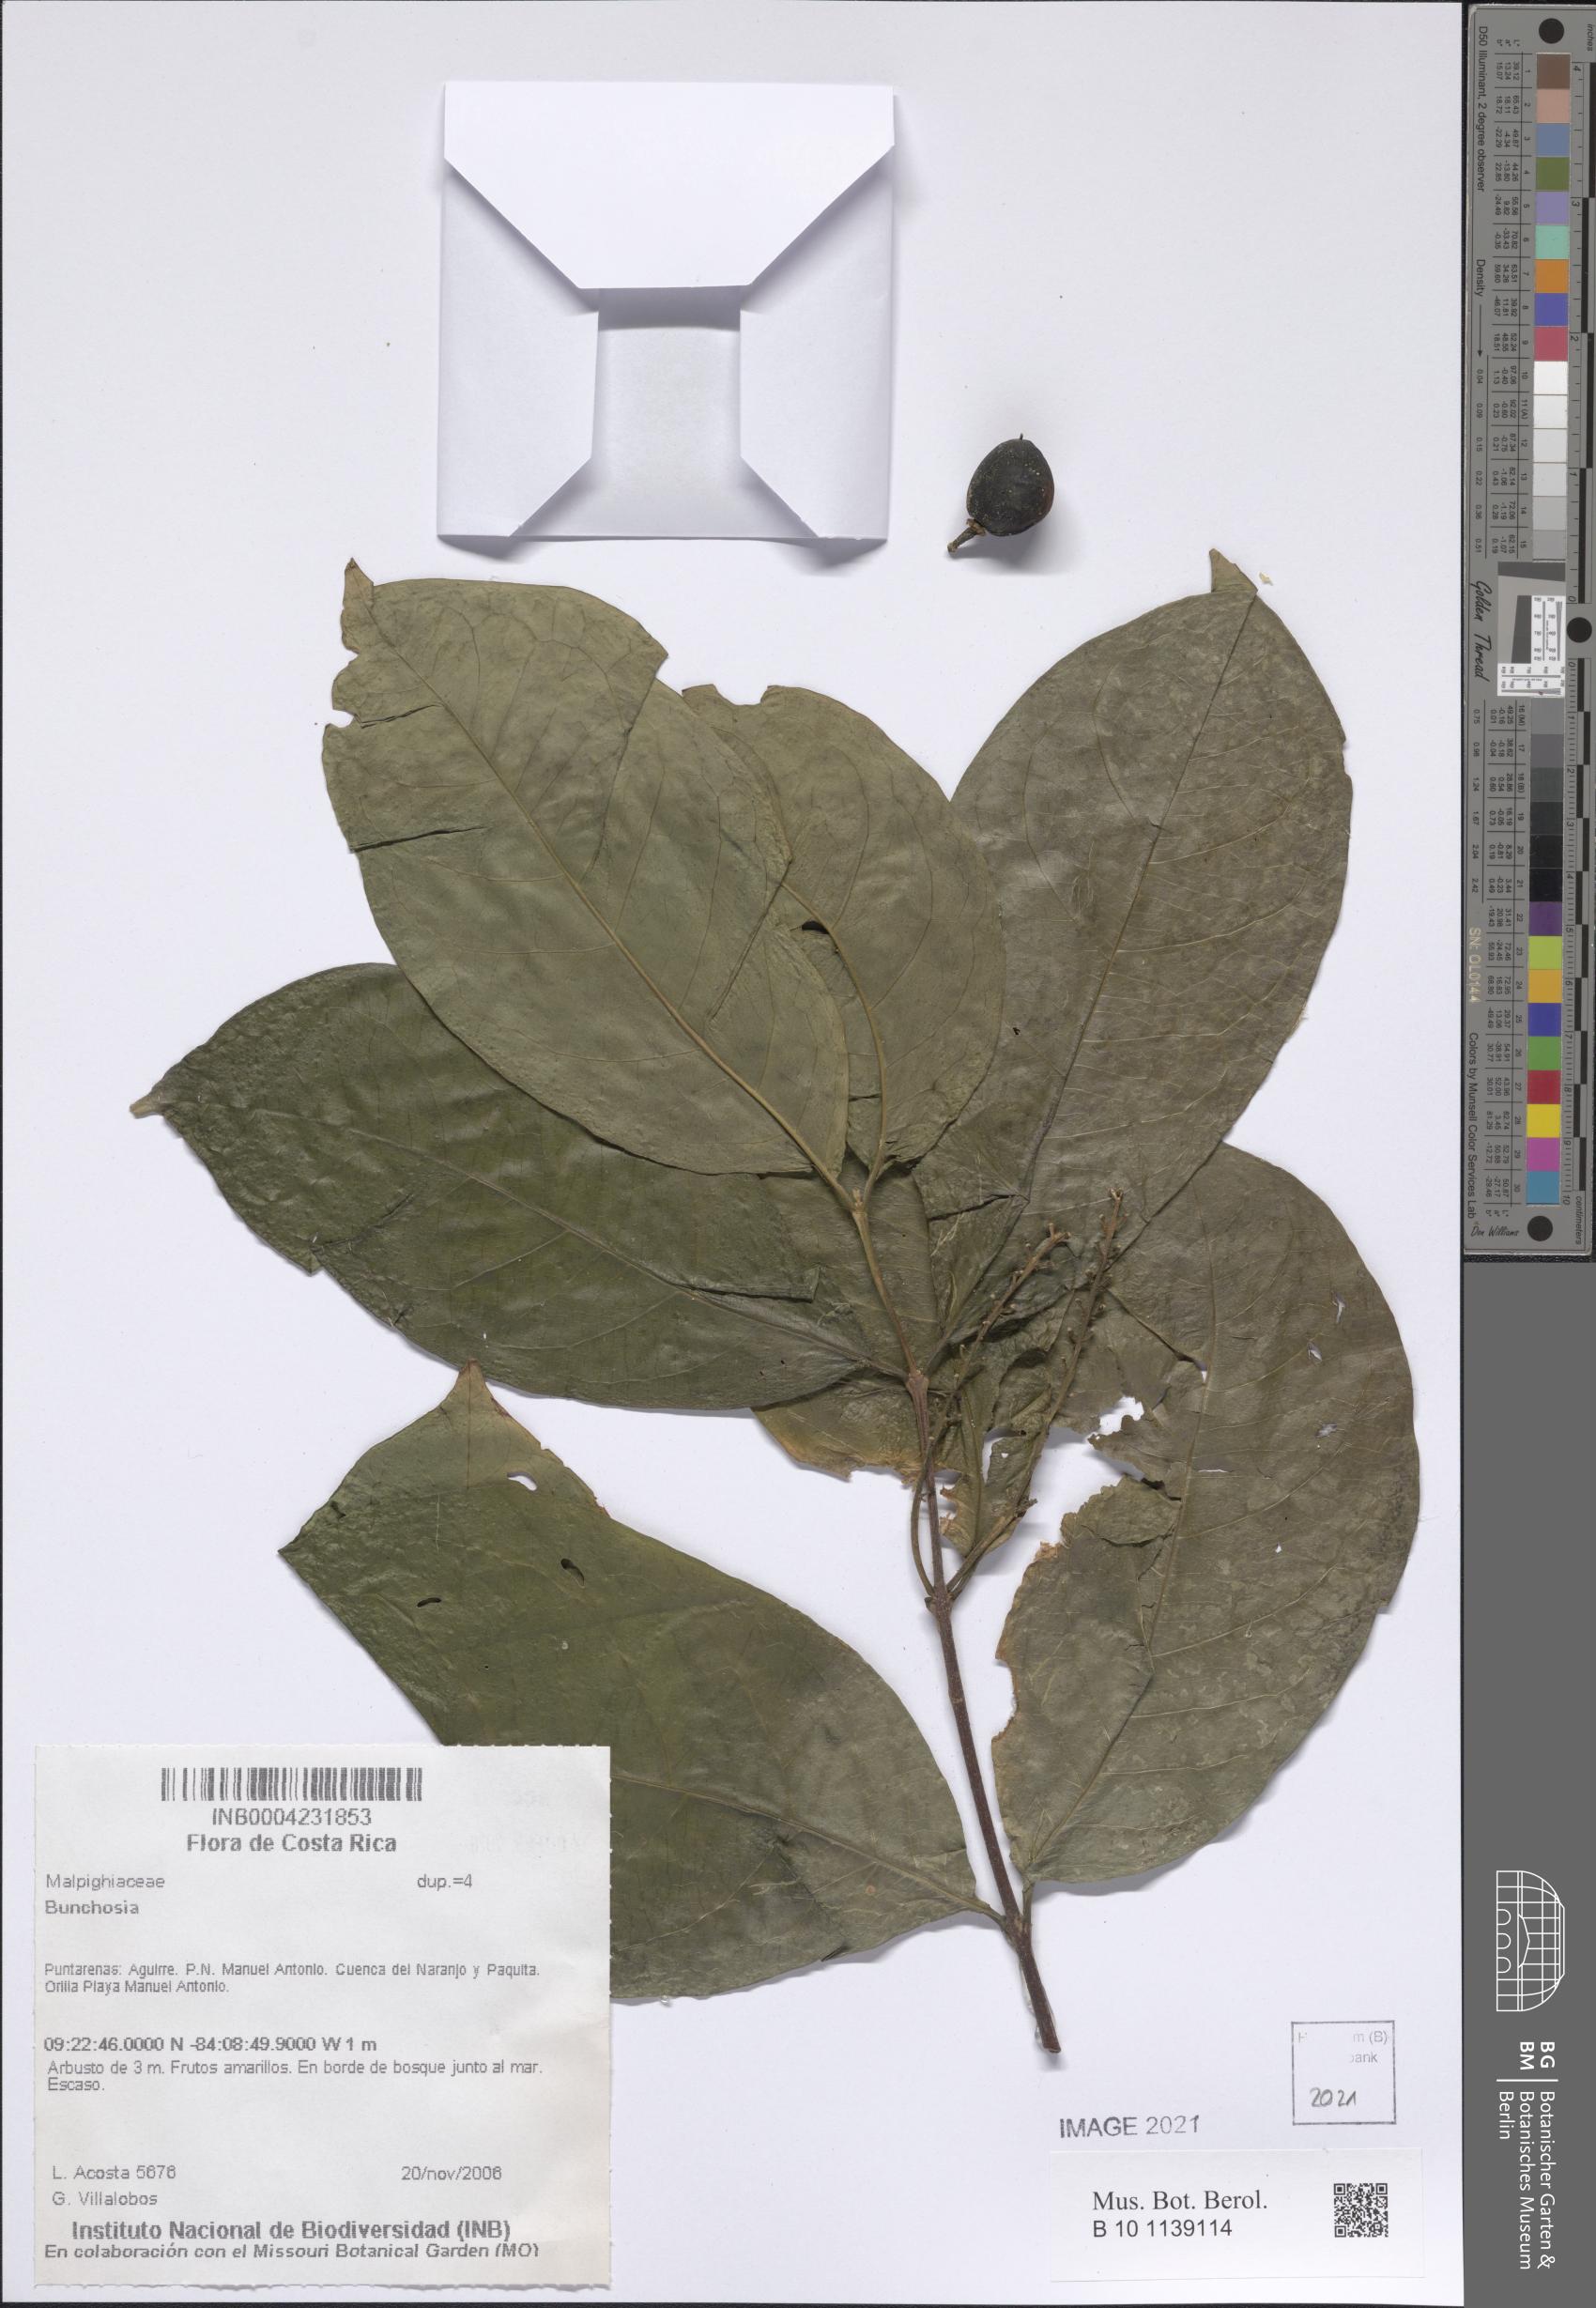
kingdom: Plantae
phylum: Tracheophyta
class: Magnoliopsida
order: Malpighiales
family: Malpighiaceae
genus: Bunchosia
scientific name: Bunchosia
